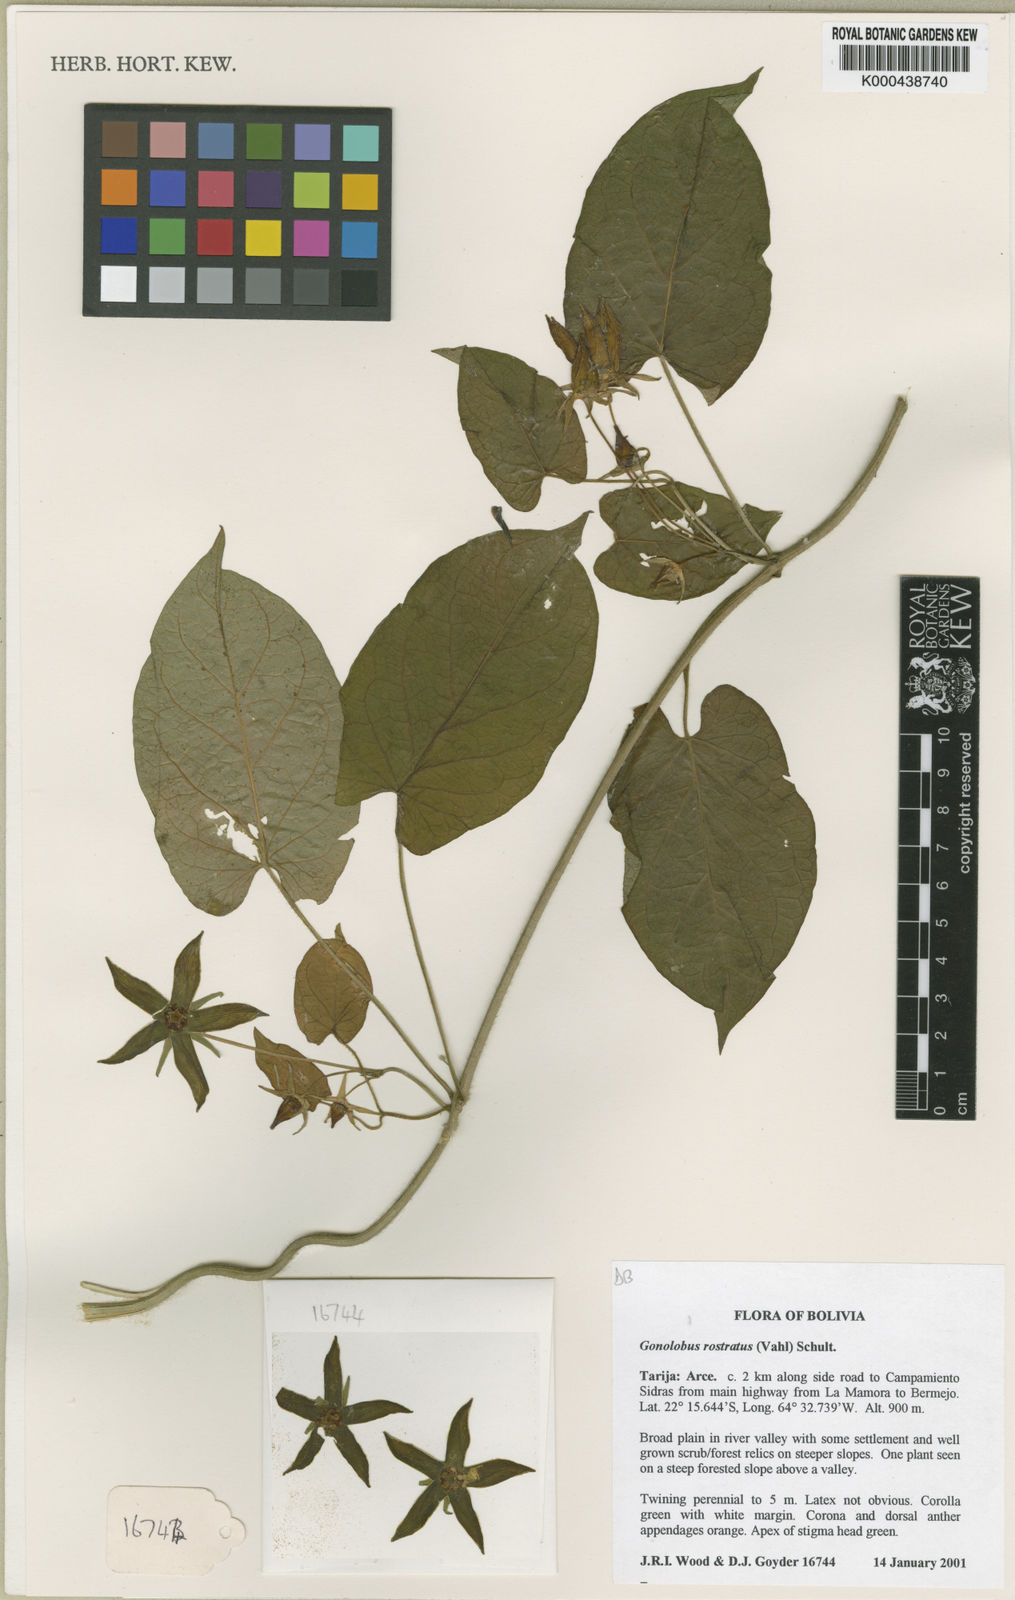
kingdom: Plantae
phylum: Tracheophyta
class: Magnoliopsida
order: Gentianales
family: Apocynaceae
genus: Gonolobus
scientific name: Gonolobus rostratus
